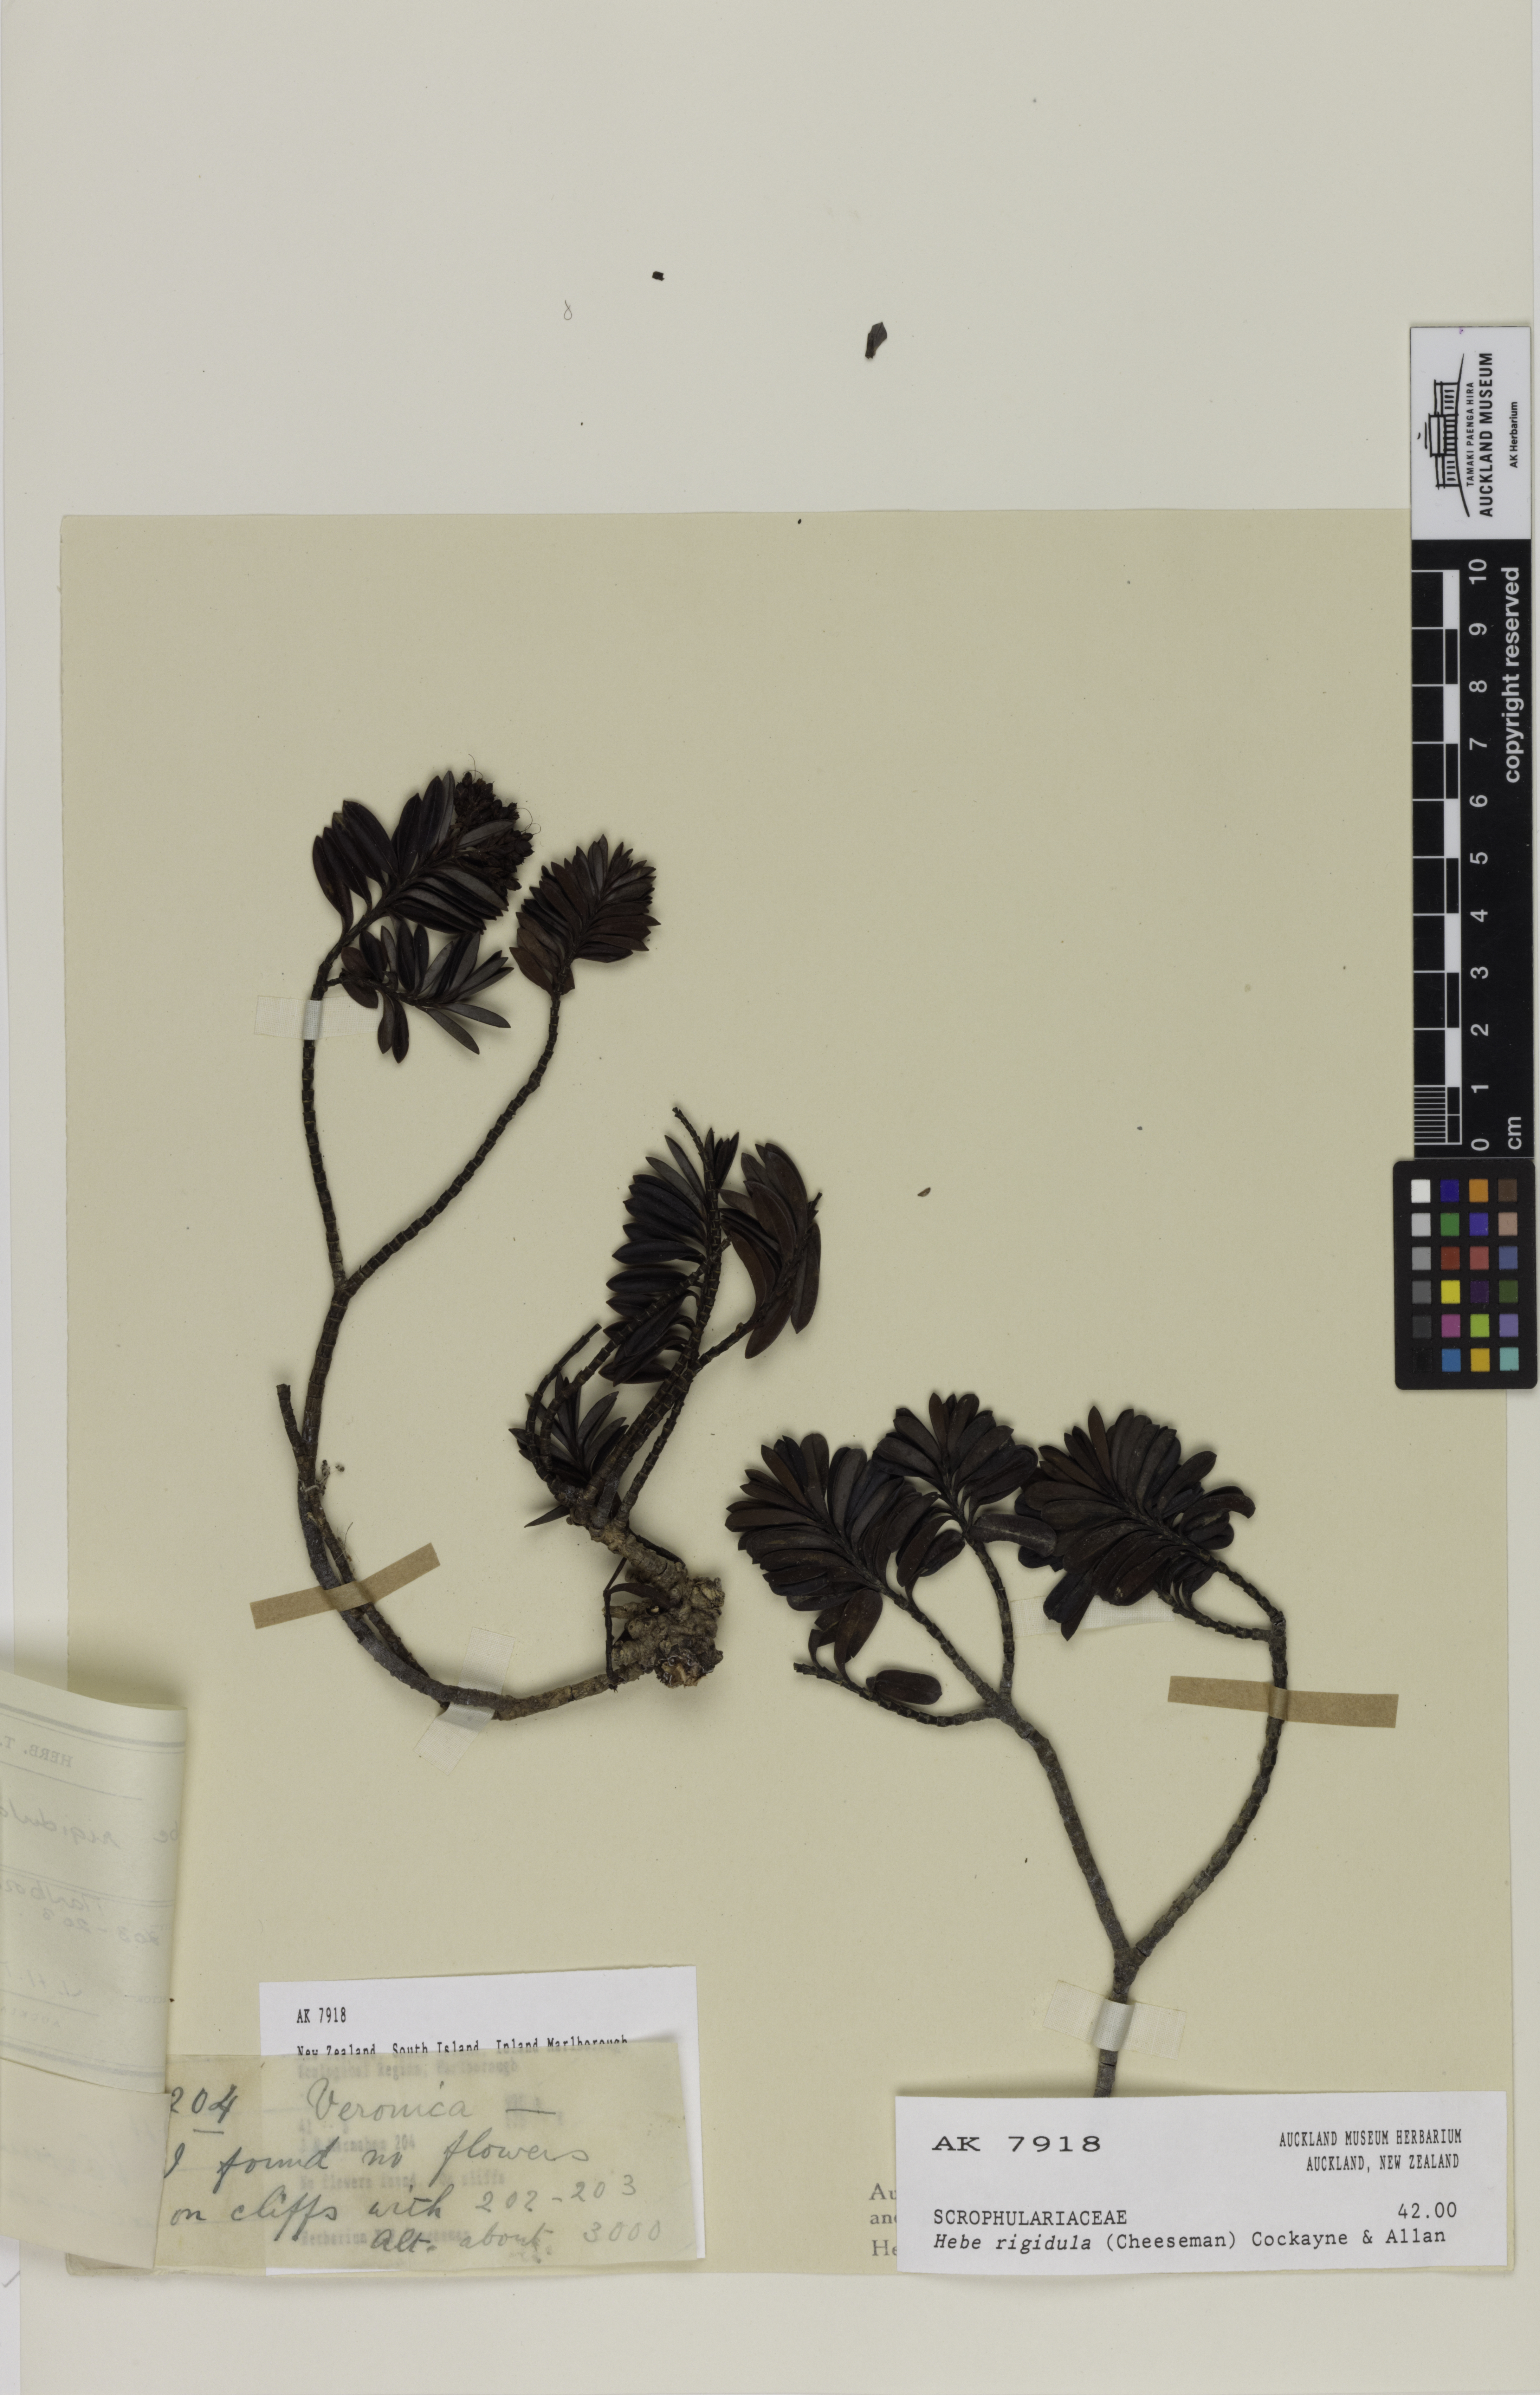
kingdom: Plantae
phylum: Tracheophyta
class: Magnoliopsida
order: Lamiales
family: Plantaginaceae
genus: Veronica
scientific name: Veronica rigidula
